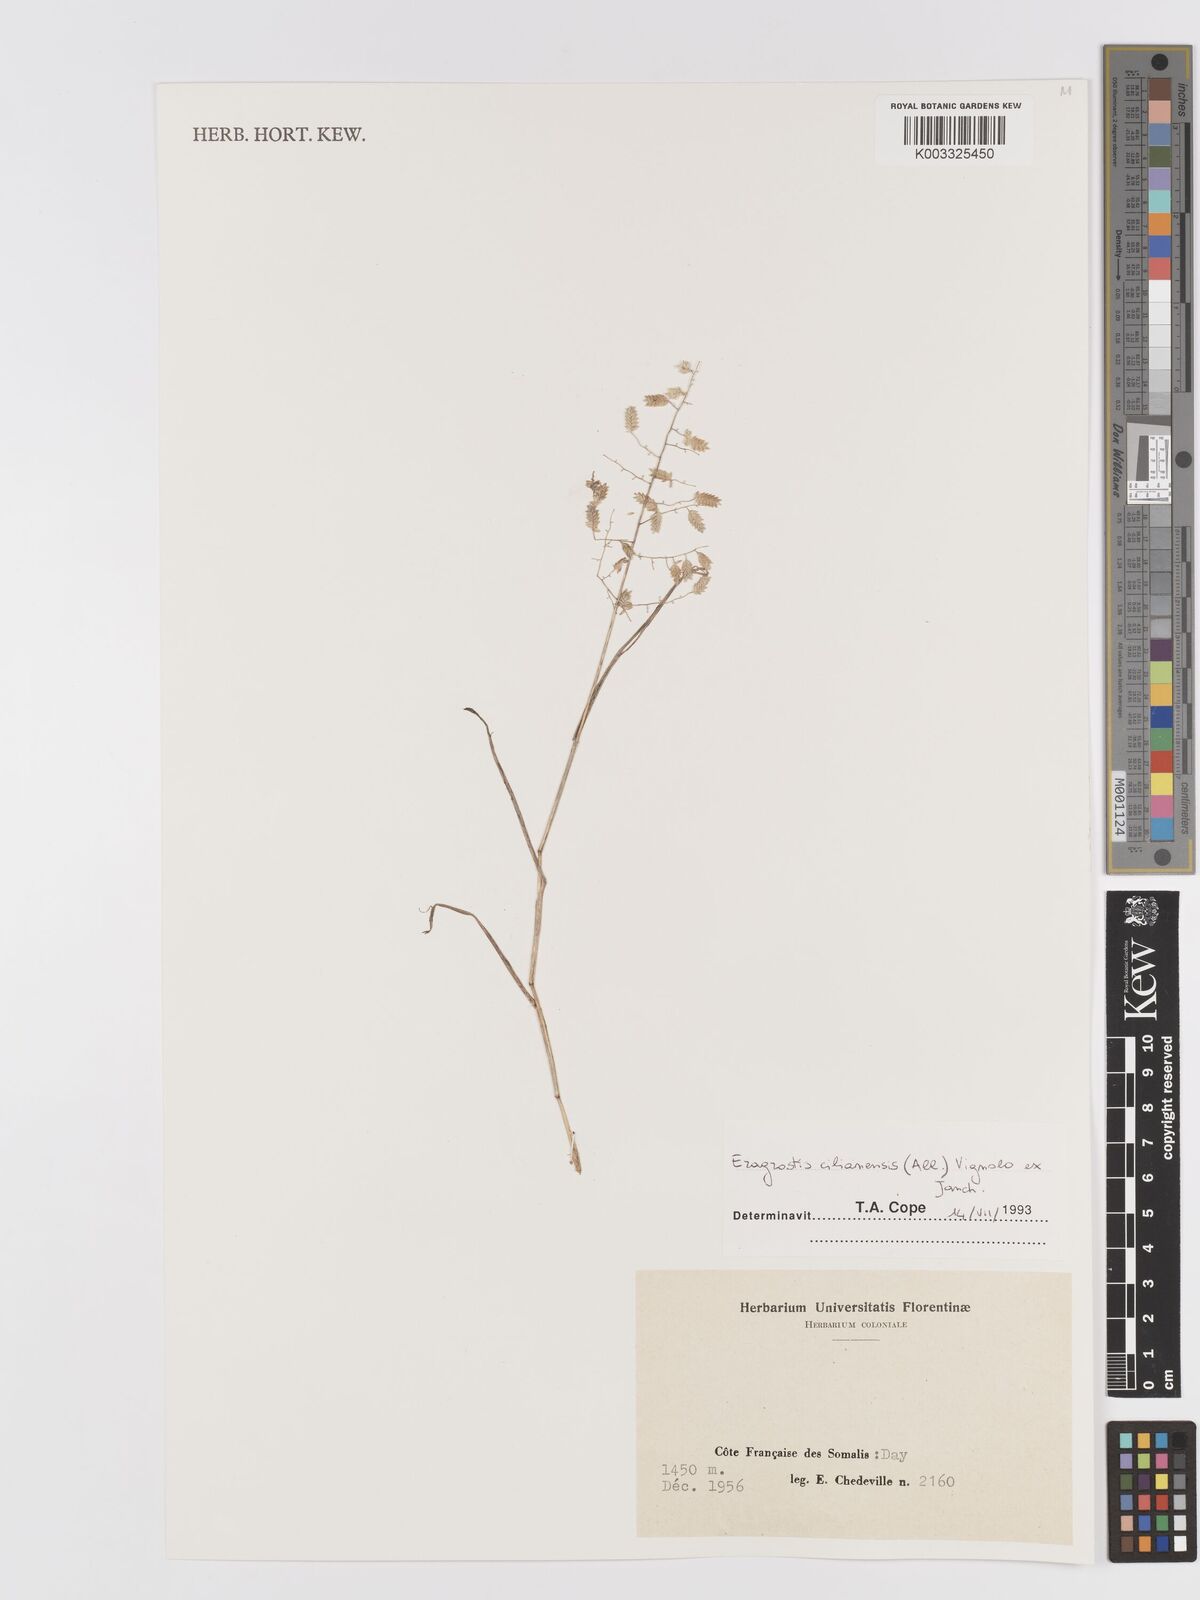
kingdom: Plantae
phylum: Tracheophyta
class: Liliopsida
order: Poales
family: Poaceae
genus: Eragrostis
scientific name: Eragrostis cilianensis
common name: Stinkgrass
